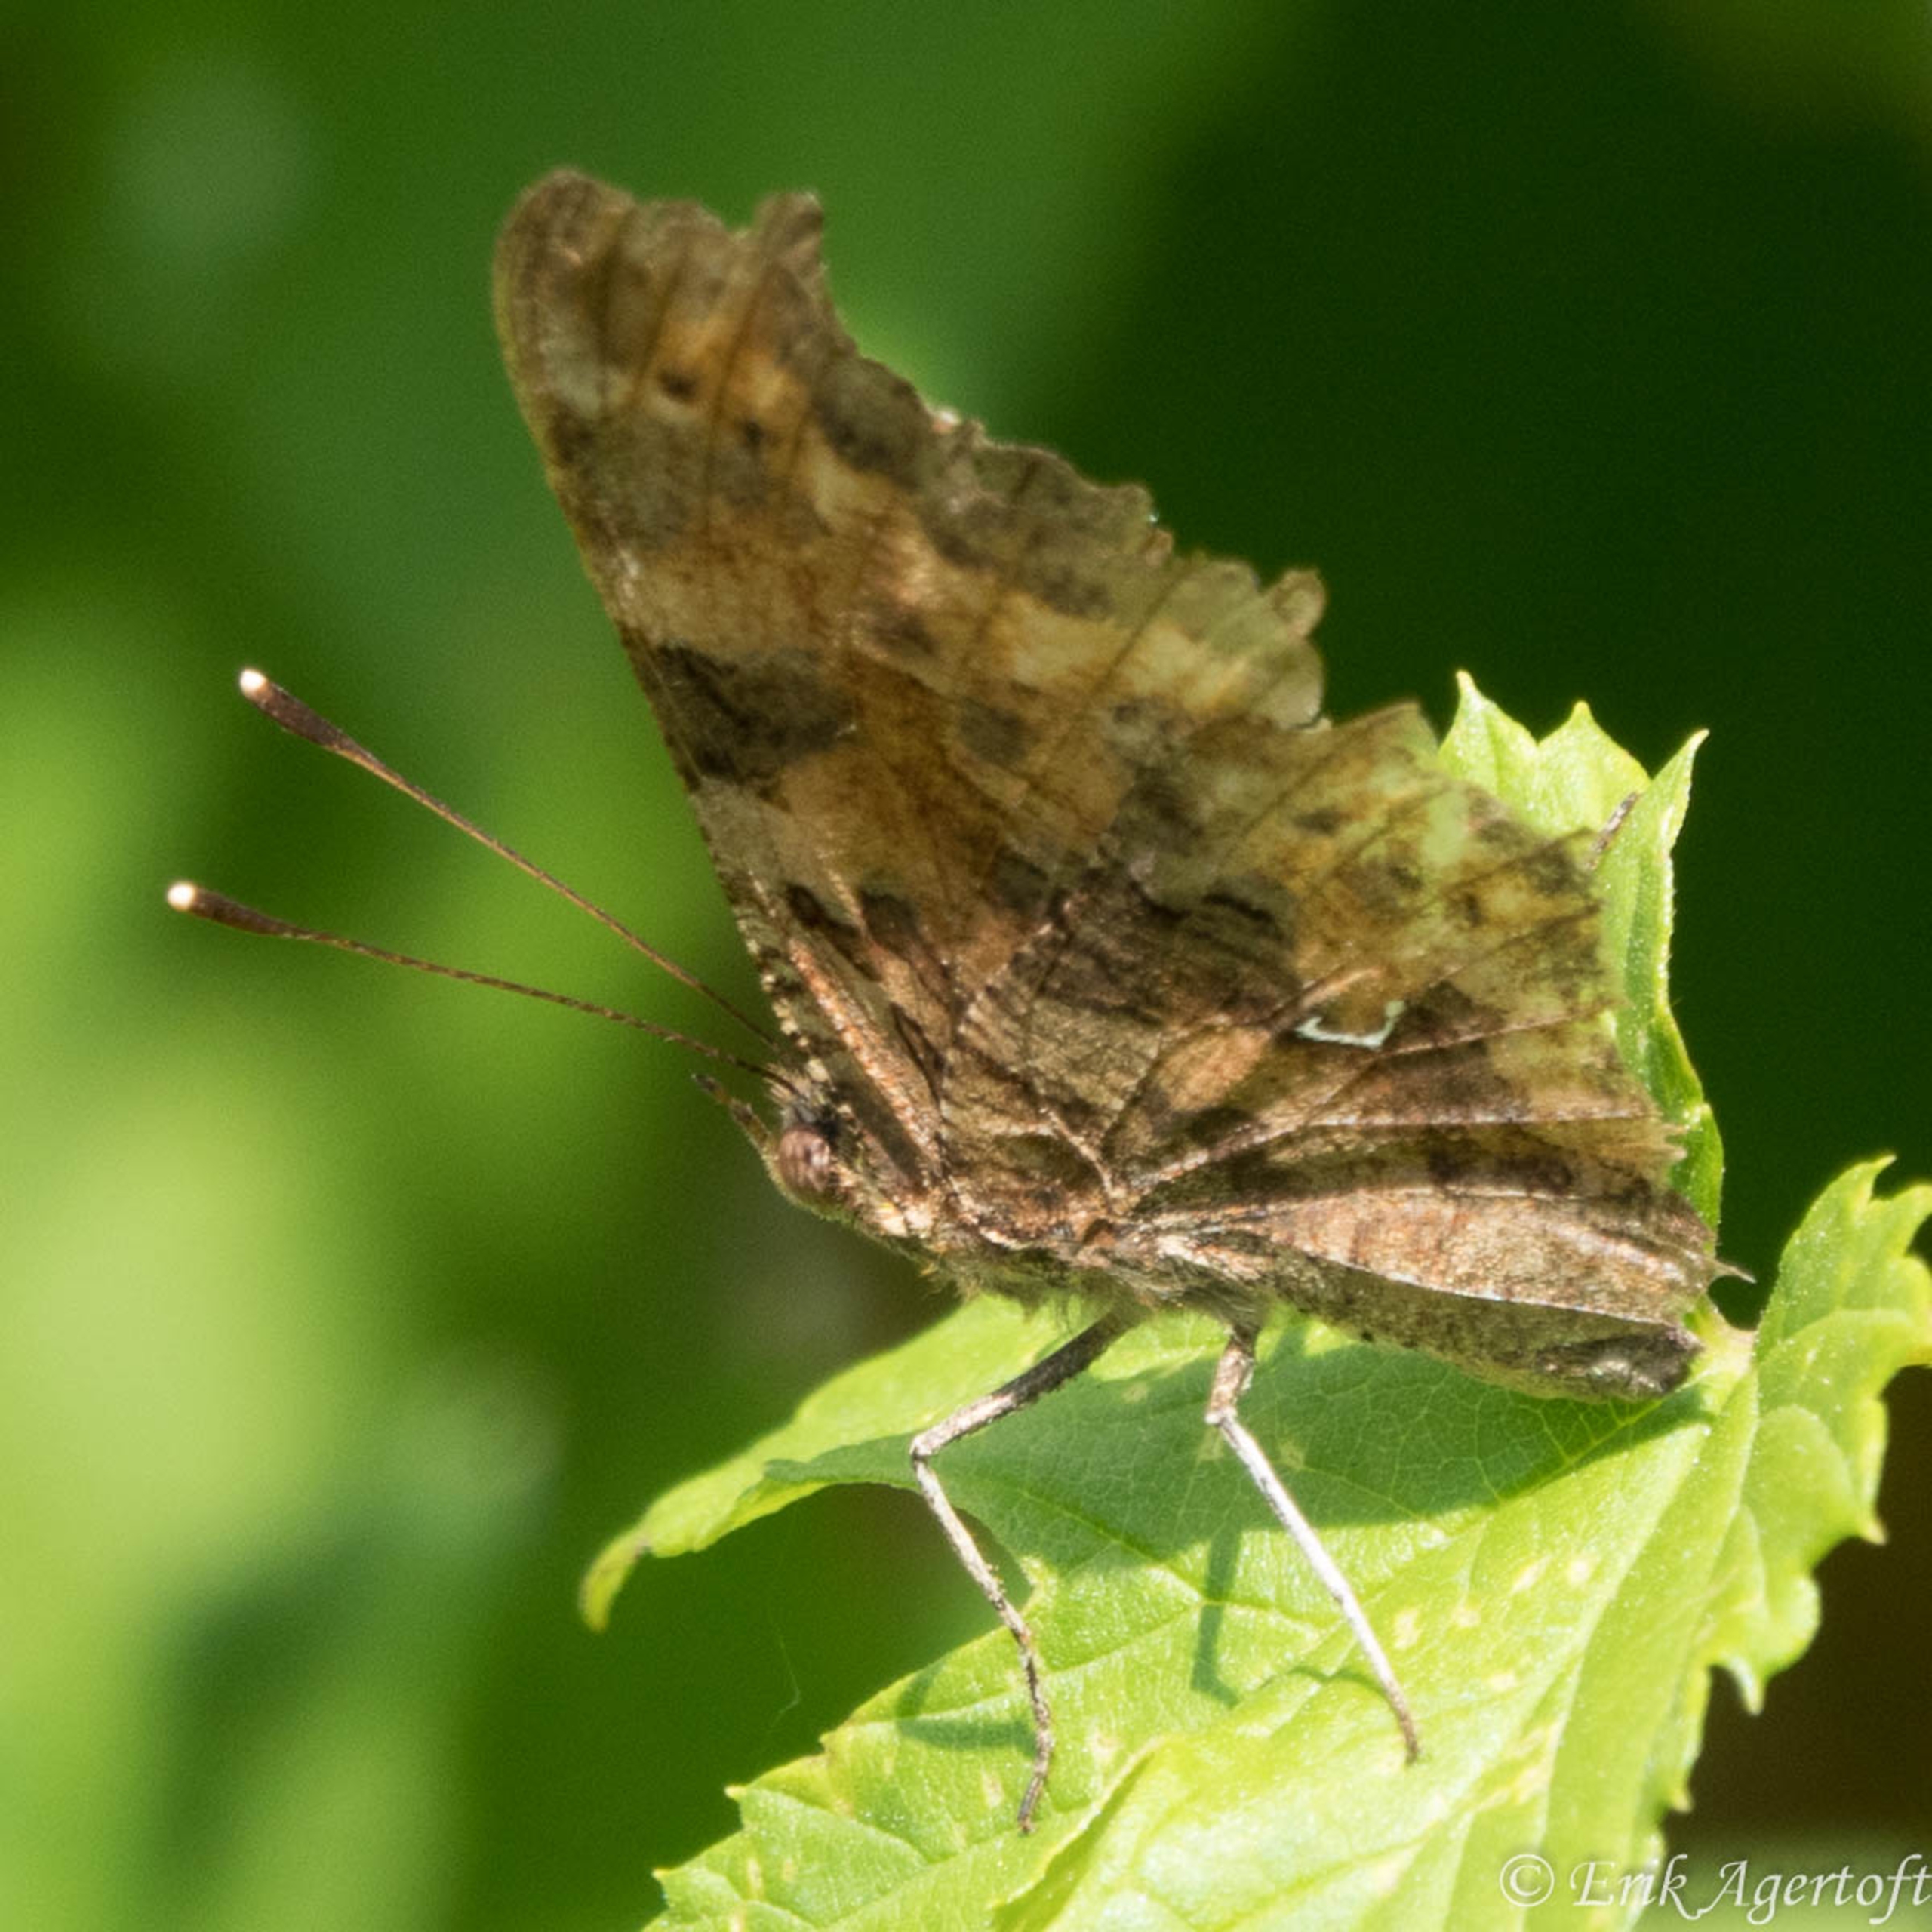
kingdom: Animalia
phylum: Arthropoda
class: Insecta
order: Lepidoptera
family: Nymphalidae
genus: Polygonia
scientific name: Polygonia c-album
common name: Det hvide C
